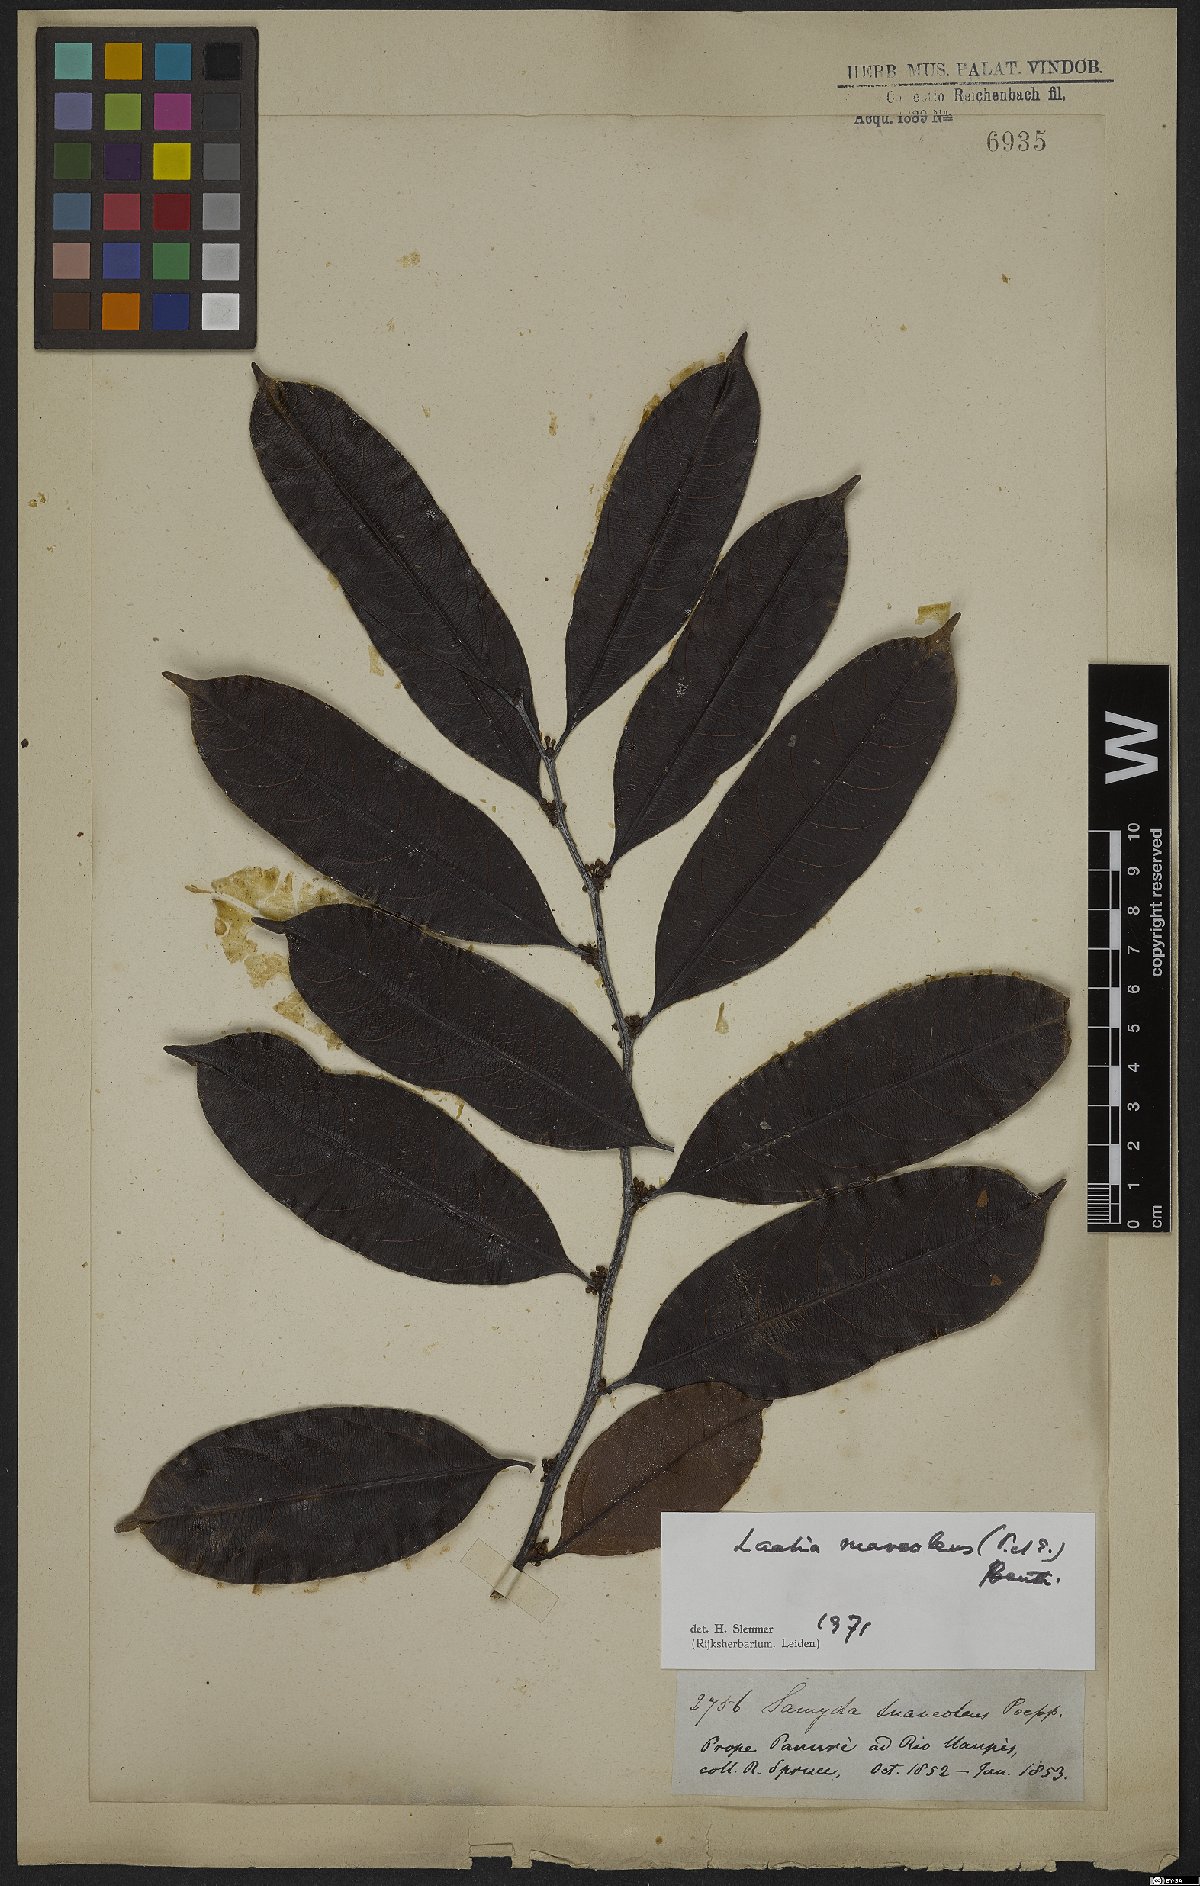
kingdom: Plantae
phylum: Tracheophyta
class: Magnoliopsida
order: Malpighiales
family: Salicaceae
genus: Casearia
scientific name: Casearia suaveolens
